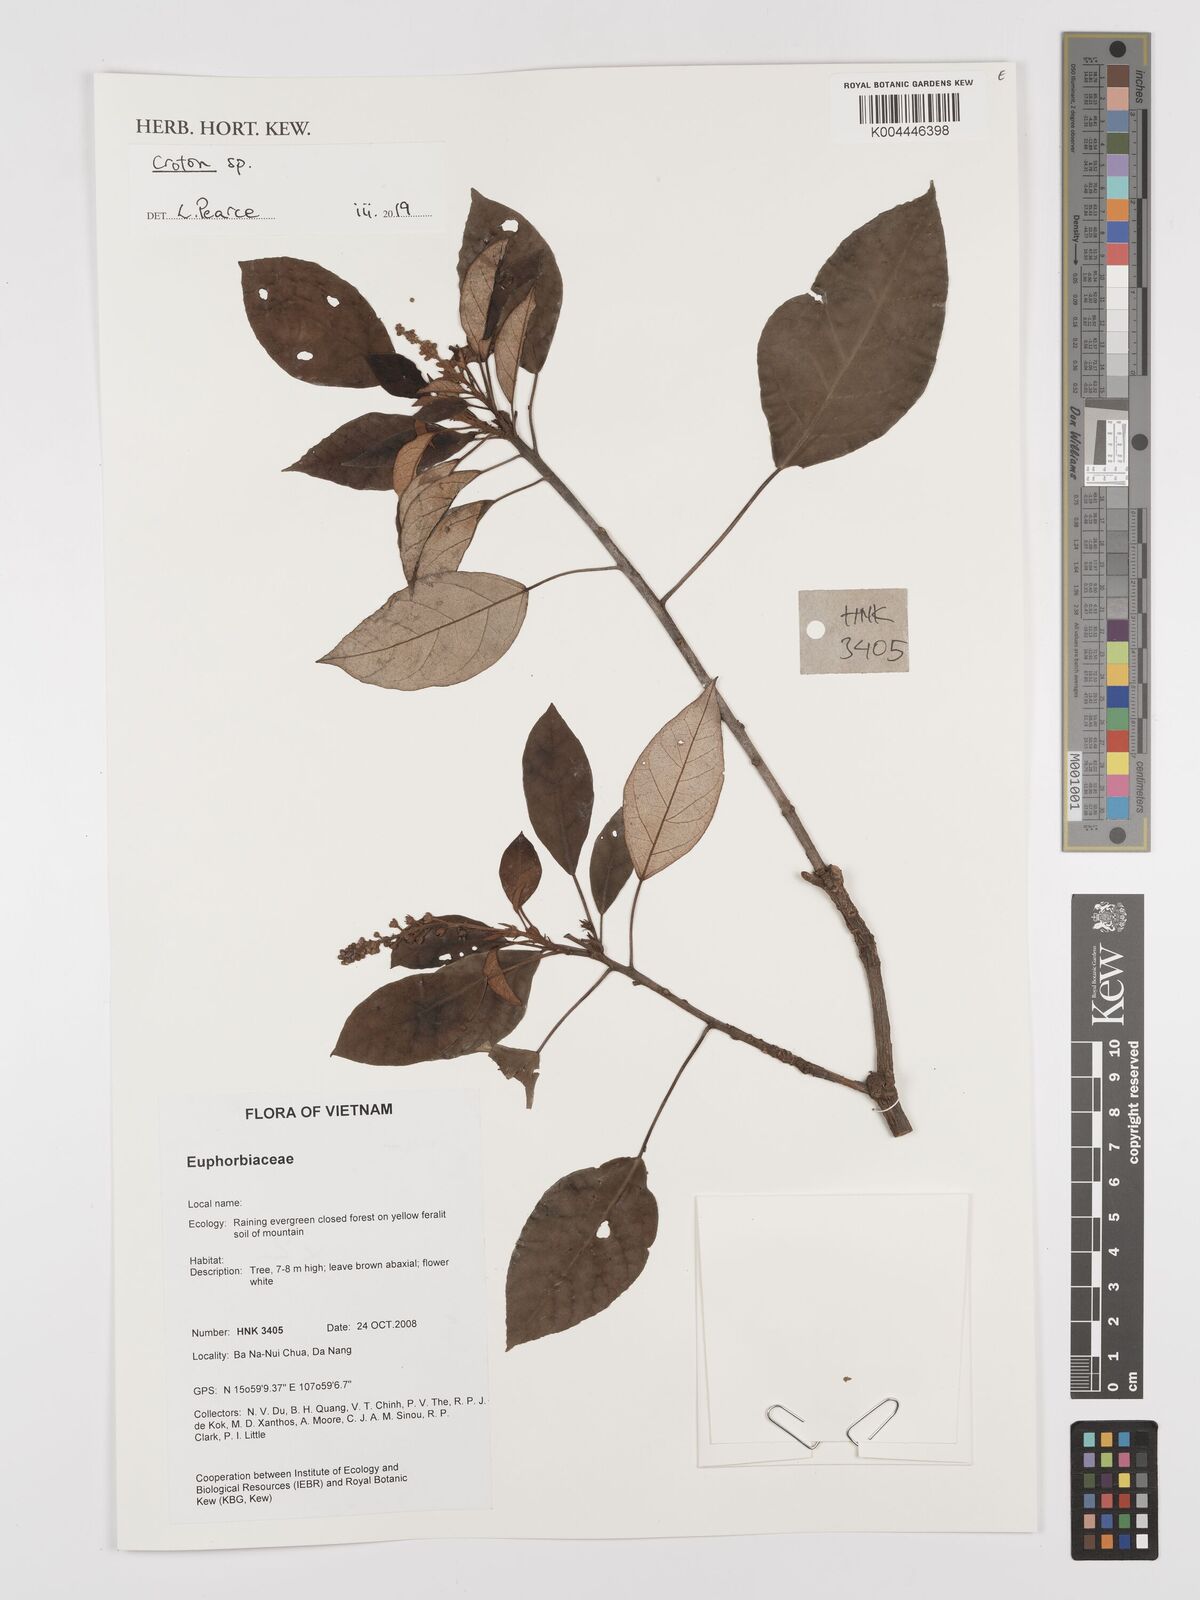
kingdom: Plantae
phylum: Tracheophyta
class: Magnoliopsida
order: Malpighiales
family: Euphorbiaceae
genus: Croton
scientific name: Croton
